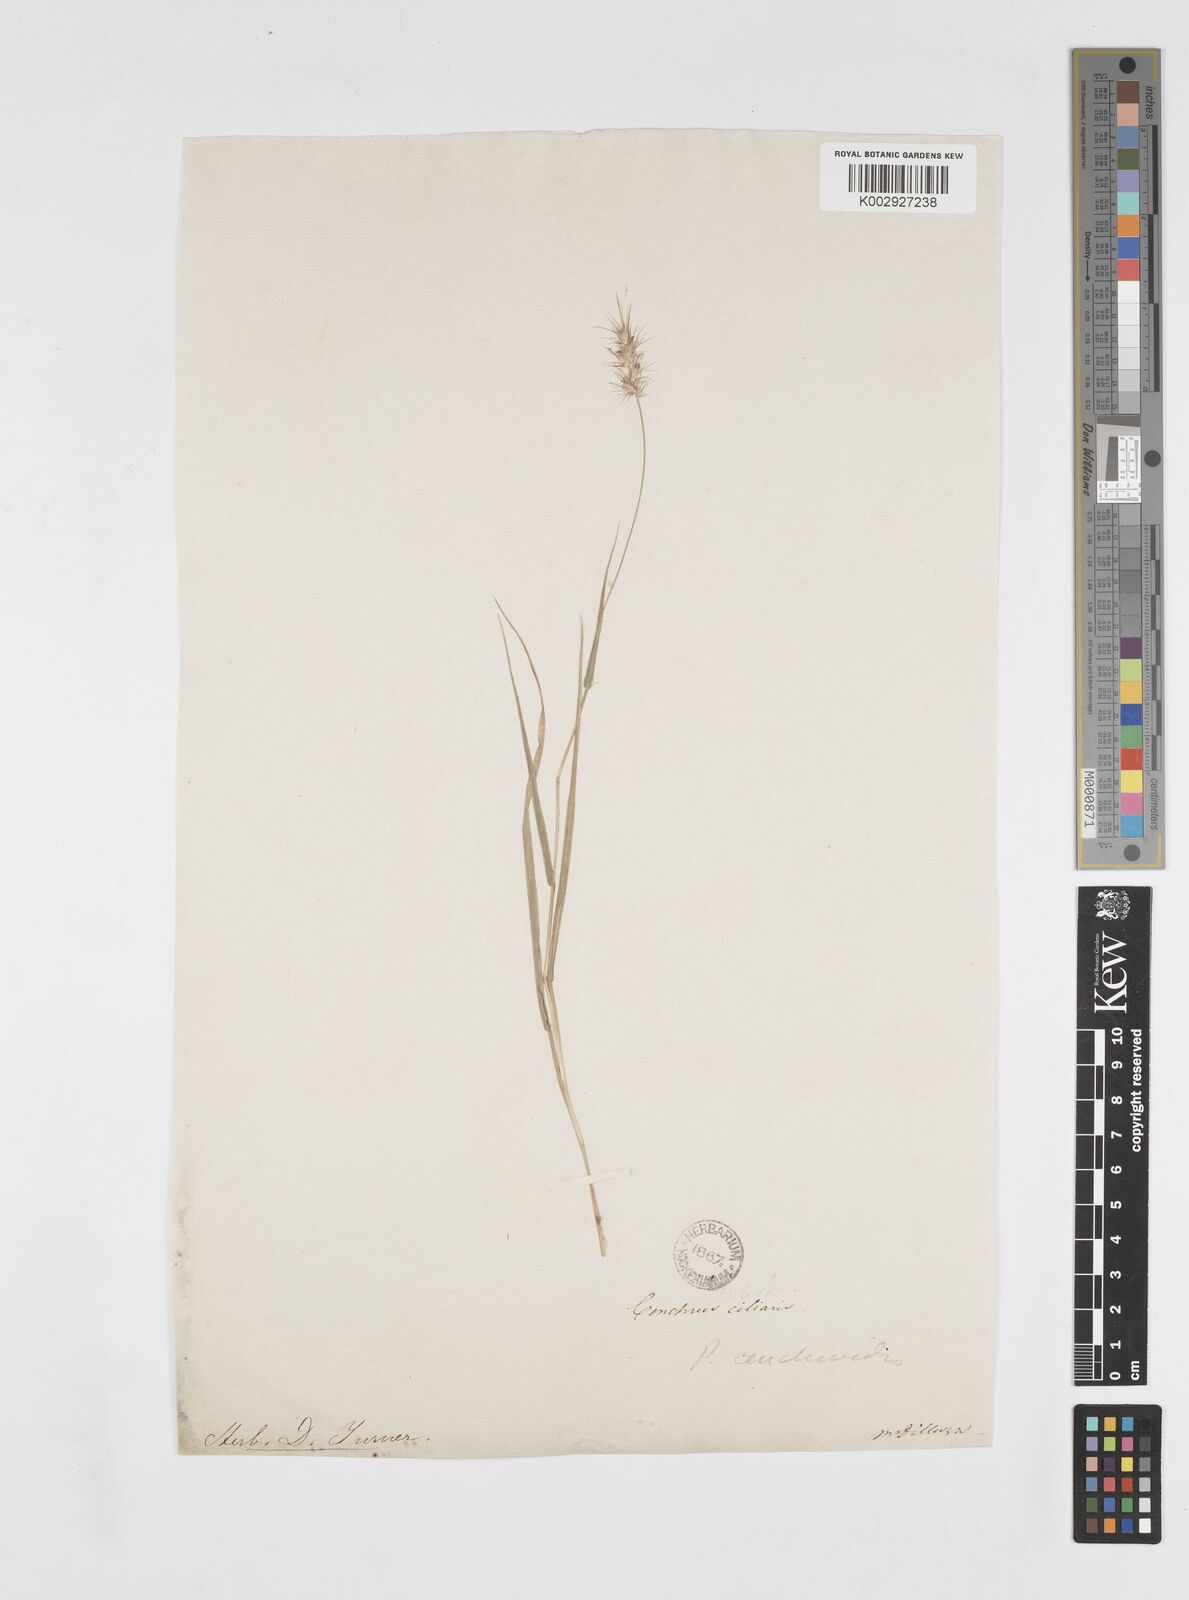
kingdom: Plantae
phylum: Tracheophyta
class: Liliopsida
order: Poales
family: Poaceae
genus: Cenchrus
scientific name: Cenchrus ciliaris
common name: Buffelgrass
